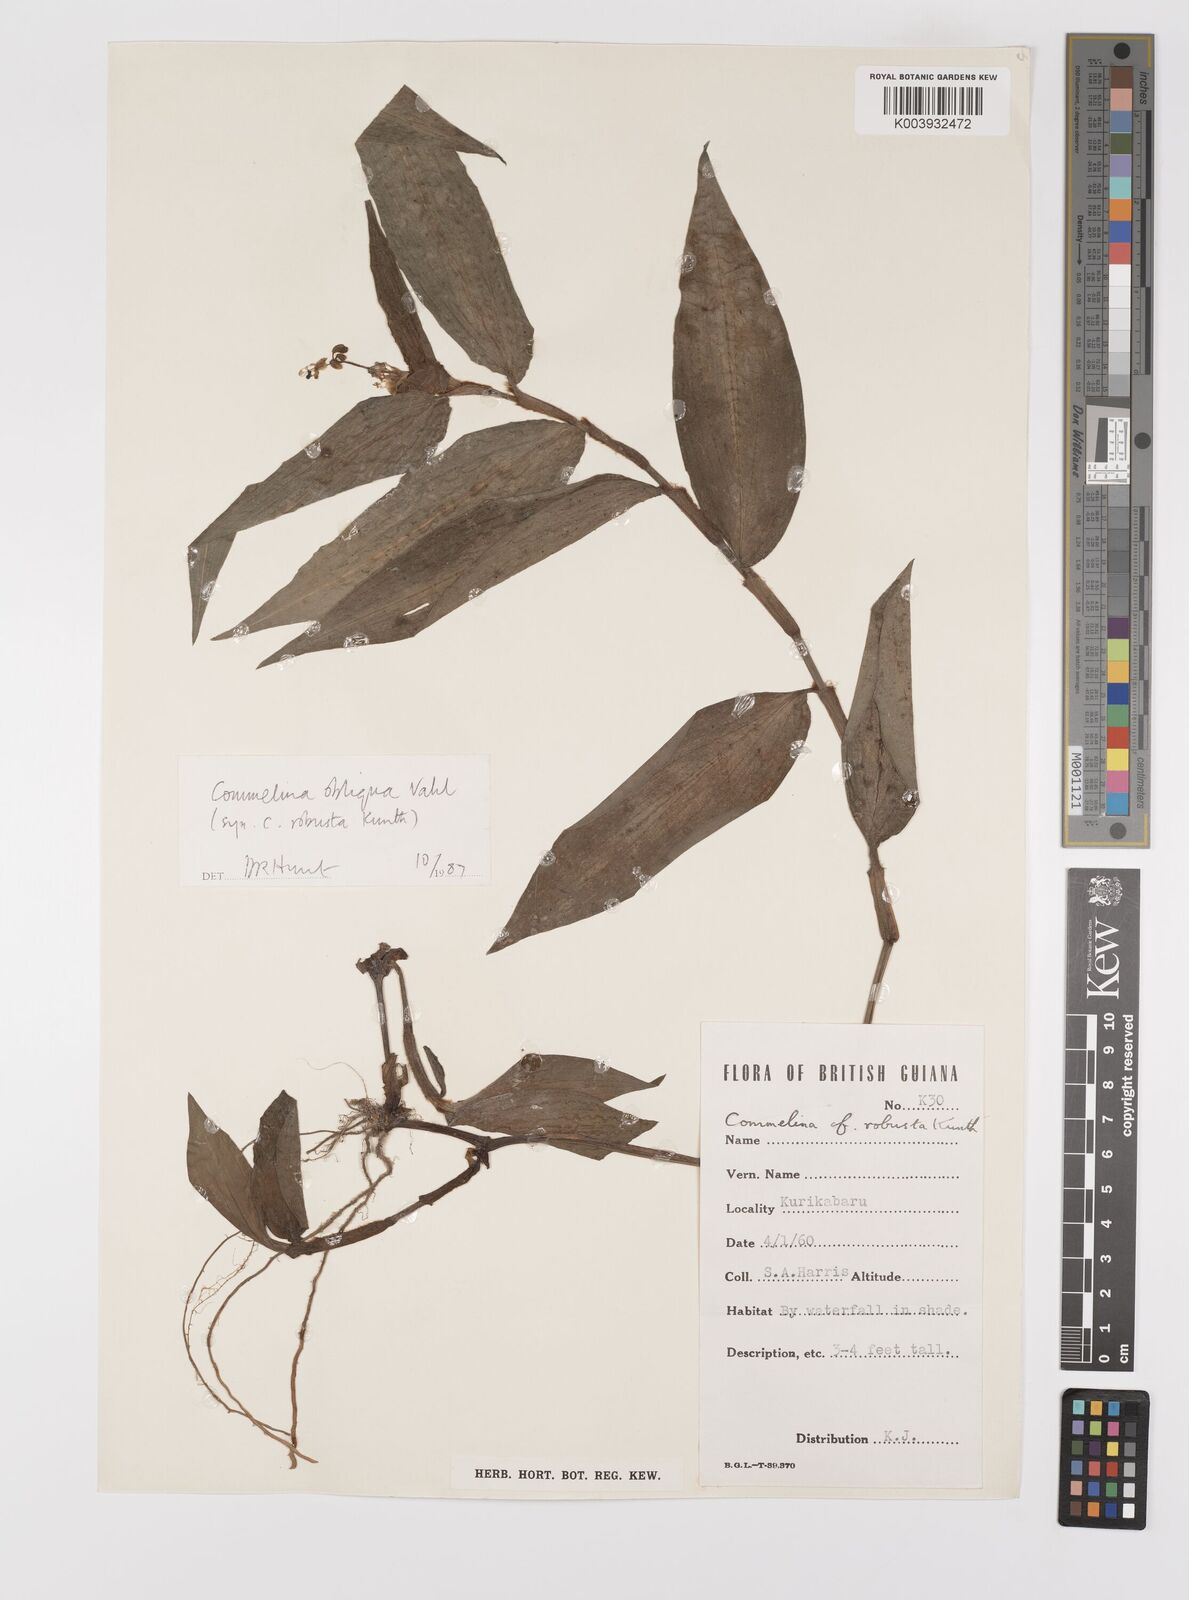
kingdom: Plantae
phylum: Tracheophyta
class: Liliopsida
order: Commelinales
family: Commelinaceae
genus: Commelina
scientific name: Commelina obliqua
